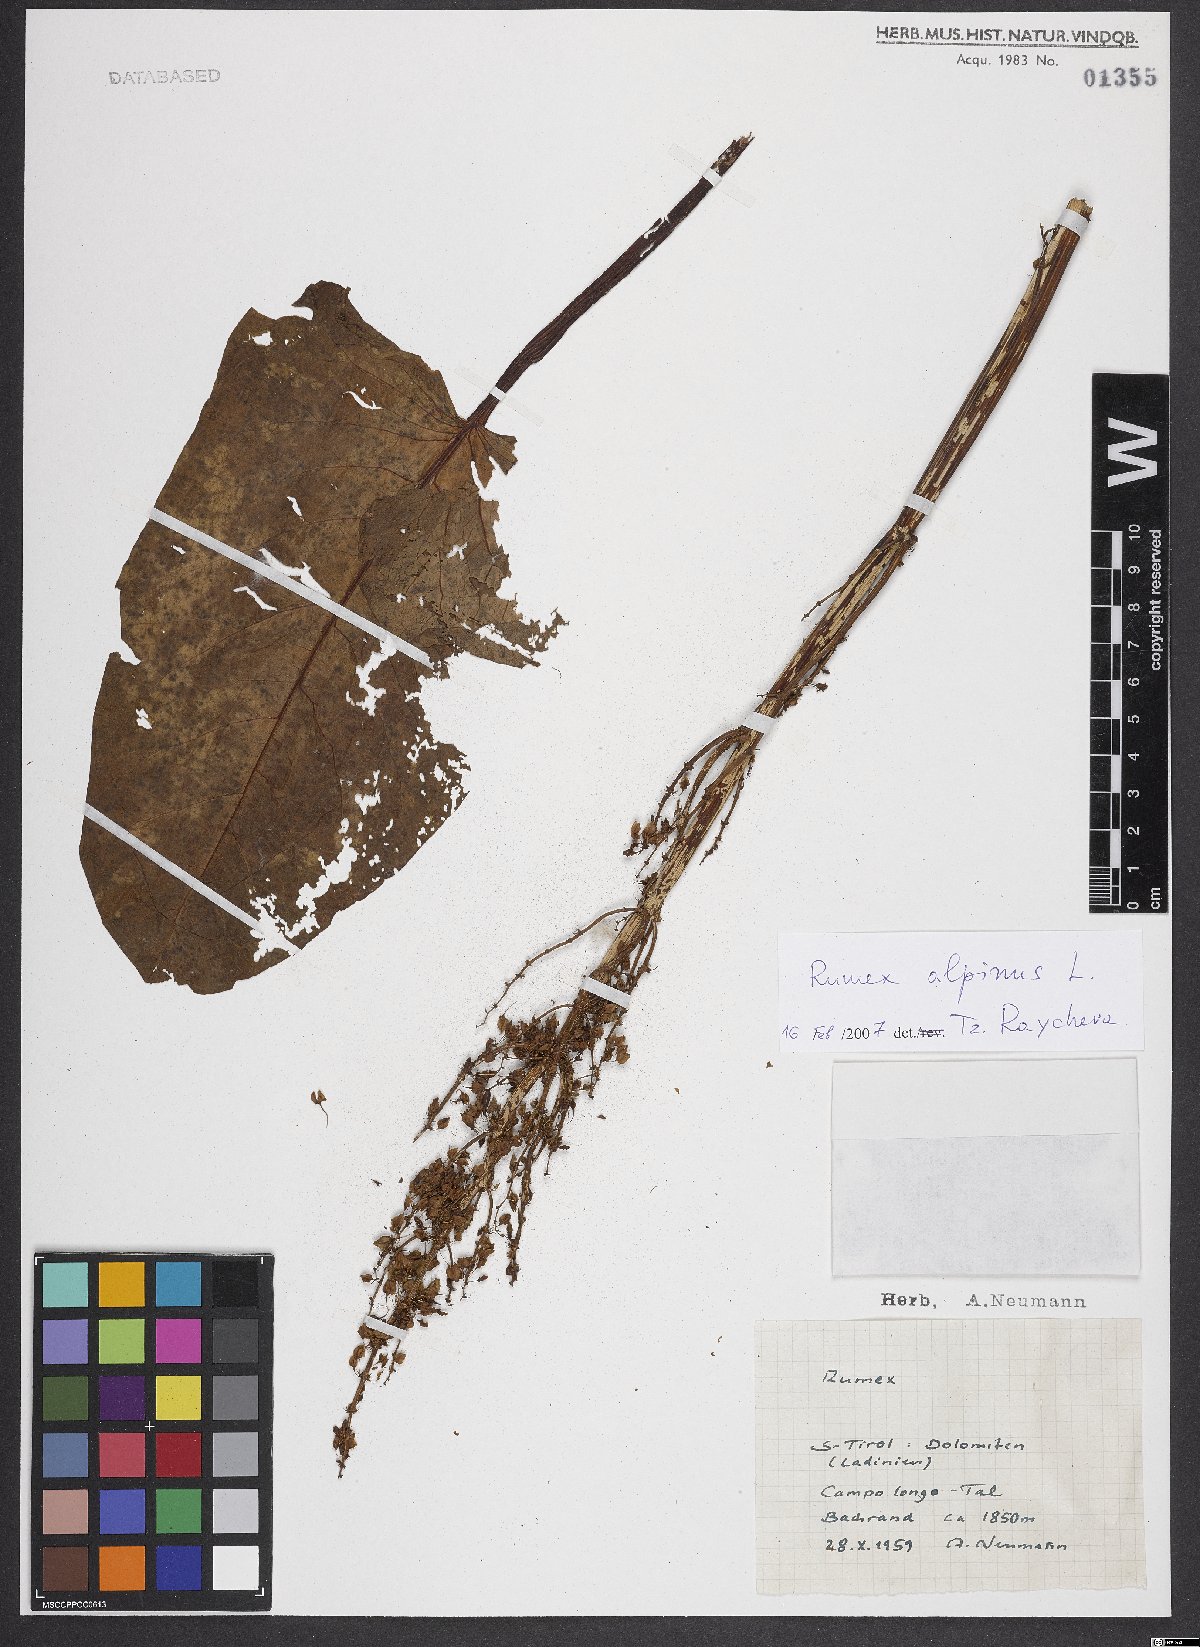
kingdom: Plantae
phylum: Tracheophyta
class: Magnoliopsida
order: Caryophyllales
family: Polygonaceae
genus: Rumex
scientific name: Rumex alpinus
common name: Alpine dock
